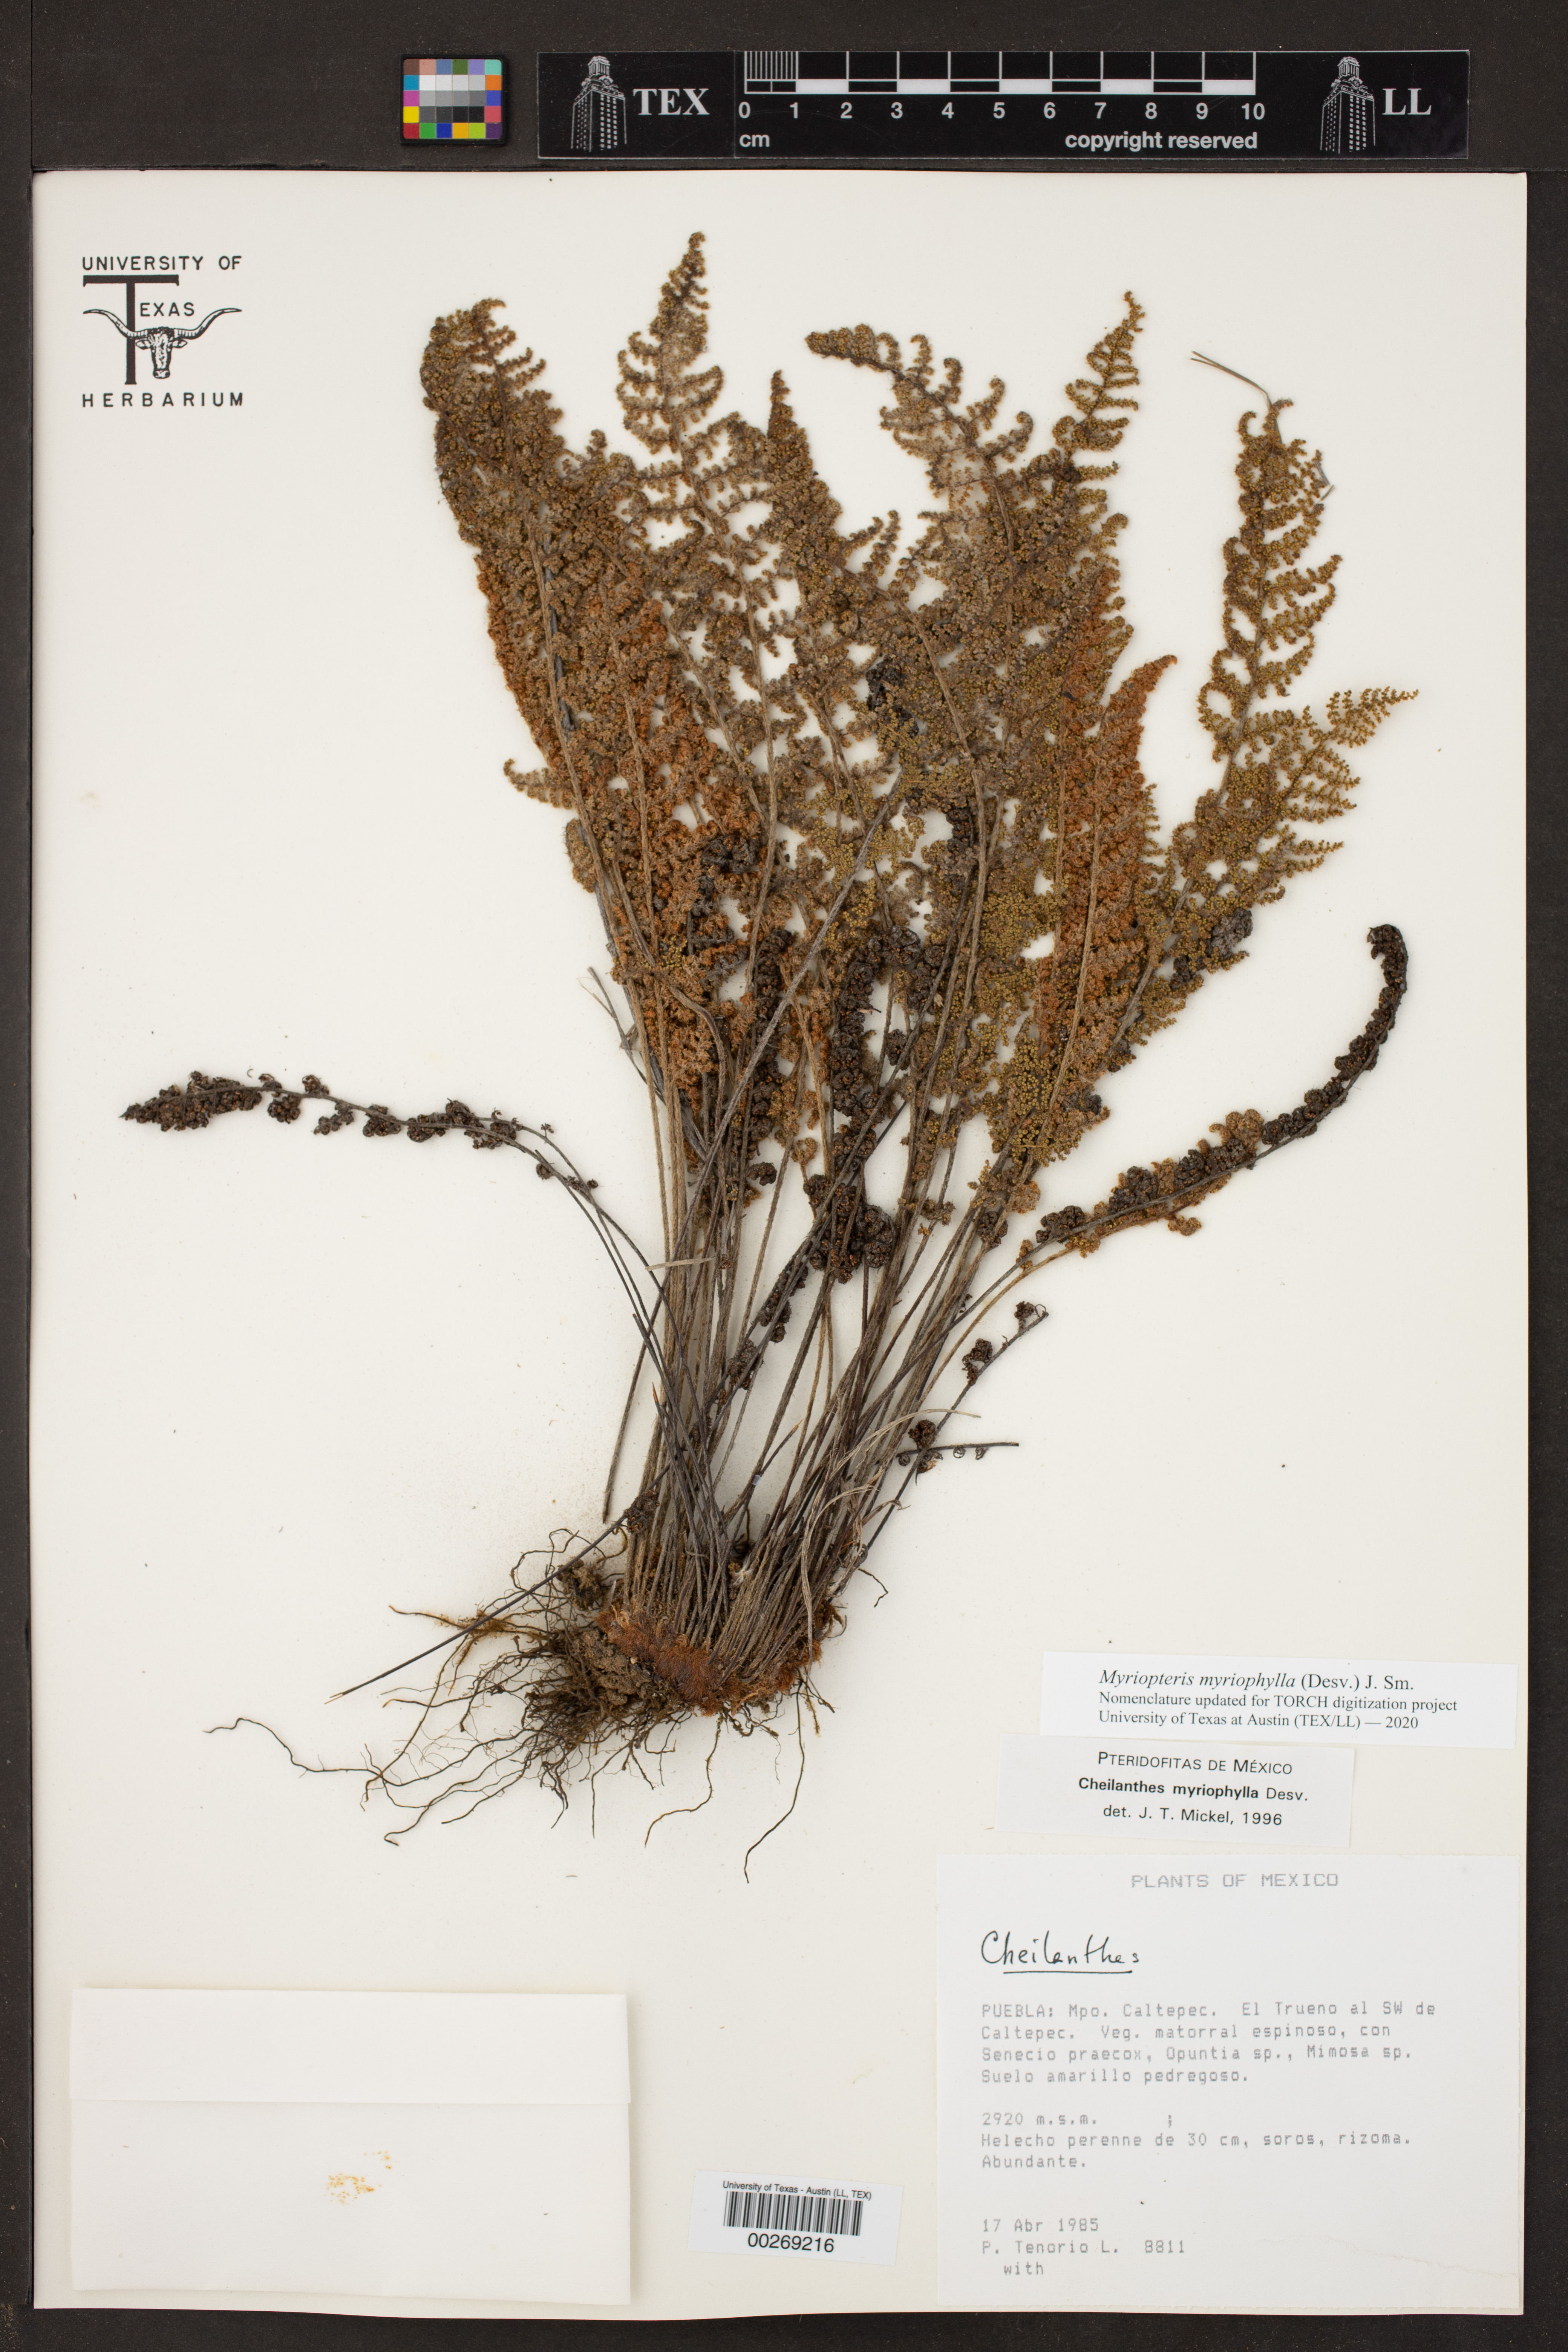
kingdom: Plantae
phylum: Tracheophyta
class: Polypodiopsida
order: Polypodiales
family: Pteridaceae
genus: Myriopteris
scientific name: Myriopteris myriophylla
